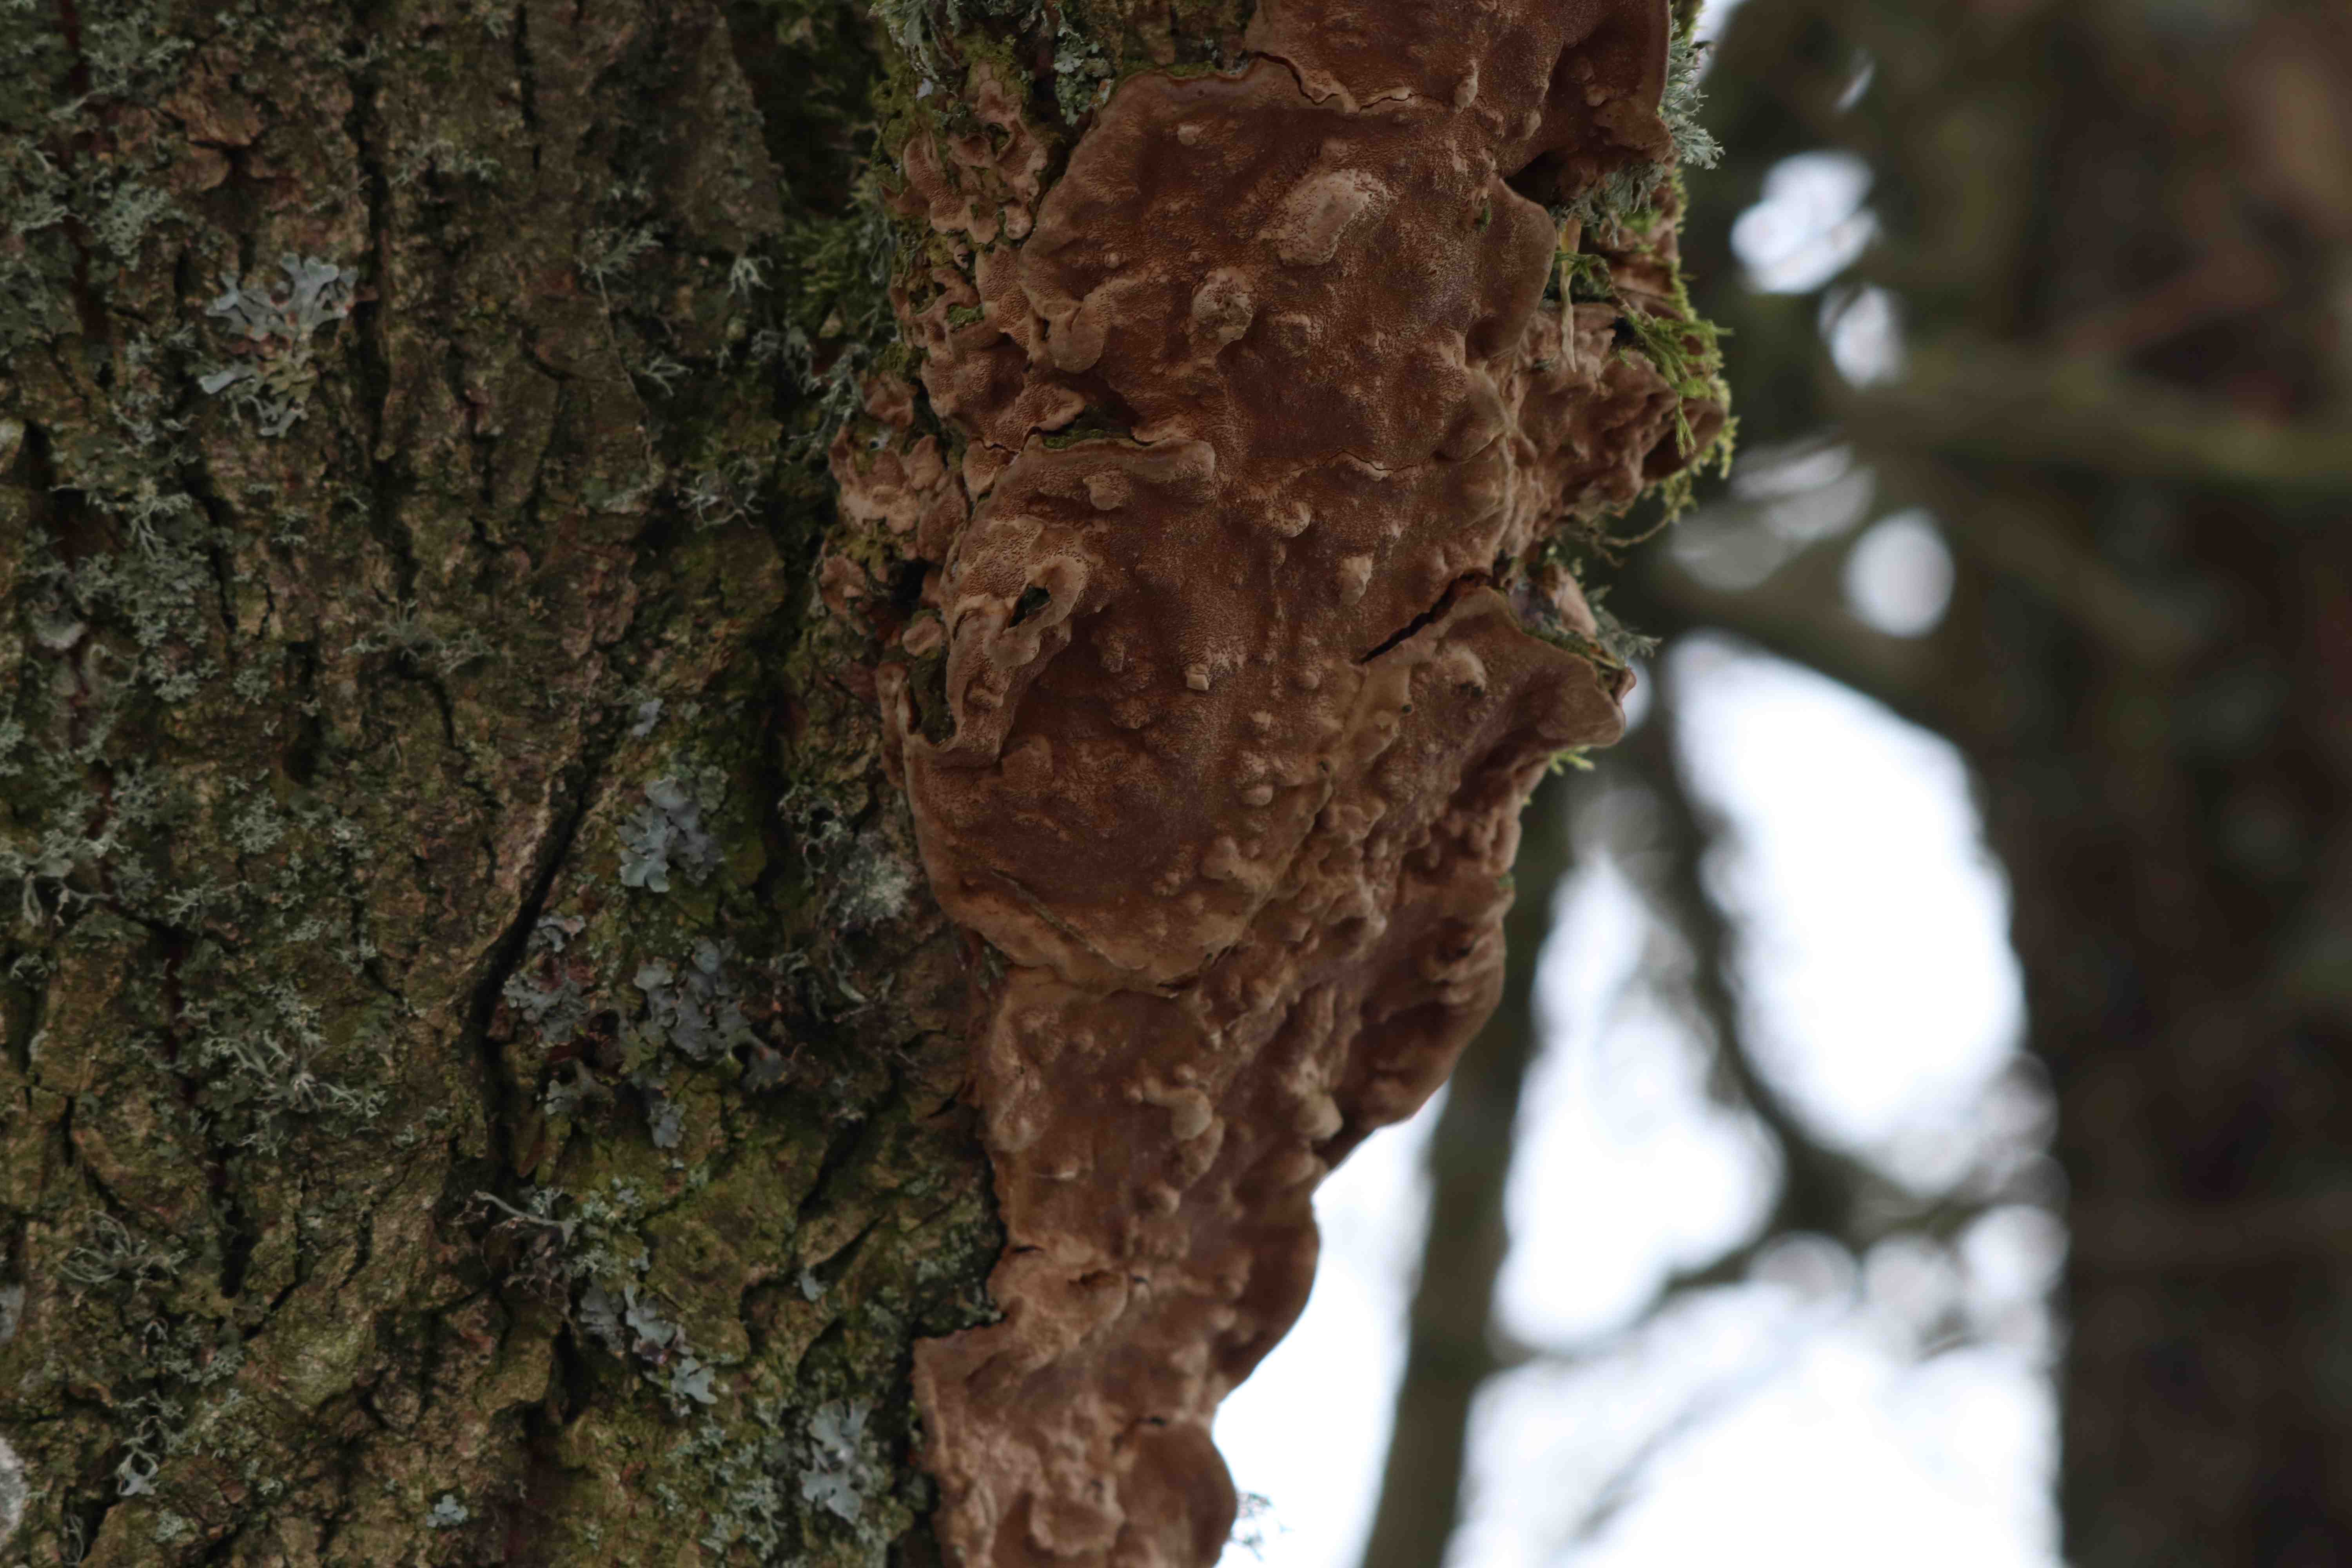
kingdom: Fungi
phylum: Basidiomycota
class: Agaricomycetes
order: Hymenochaetales
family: Hymenochaetaceae
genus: Fuscoporia
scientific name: Fuscoporia
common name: Ildporesvamp
